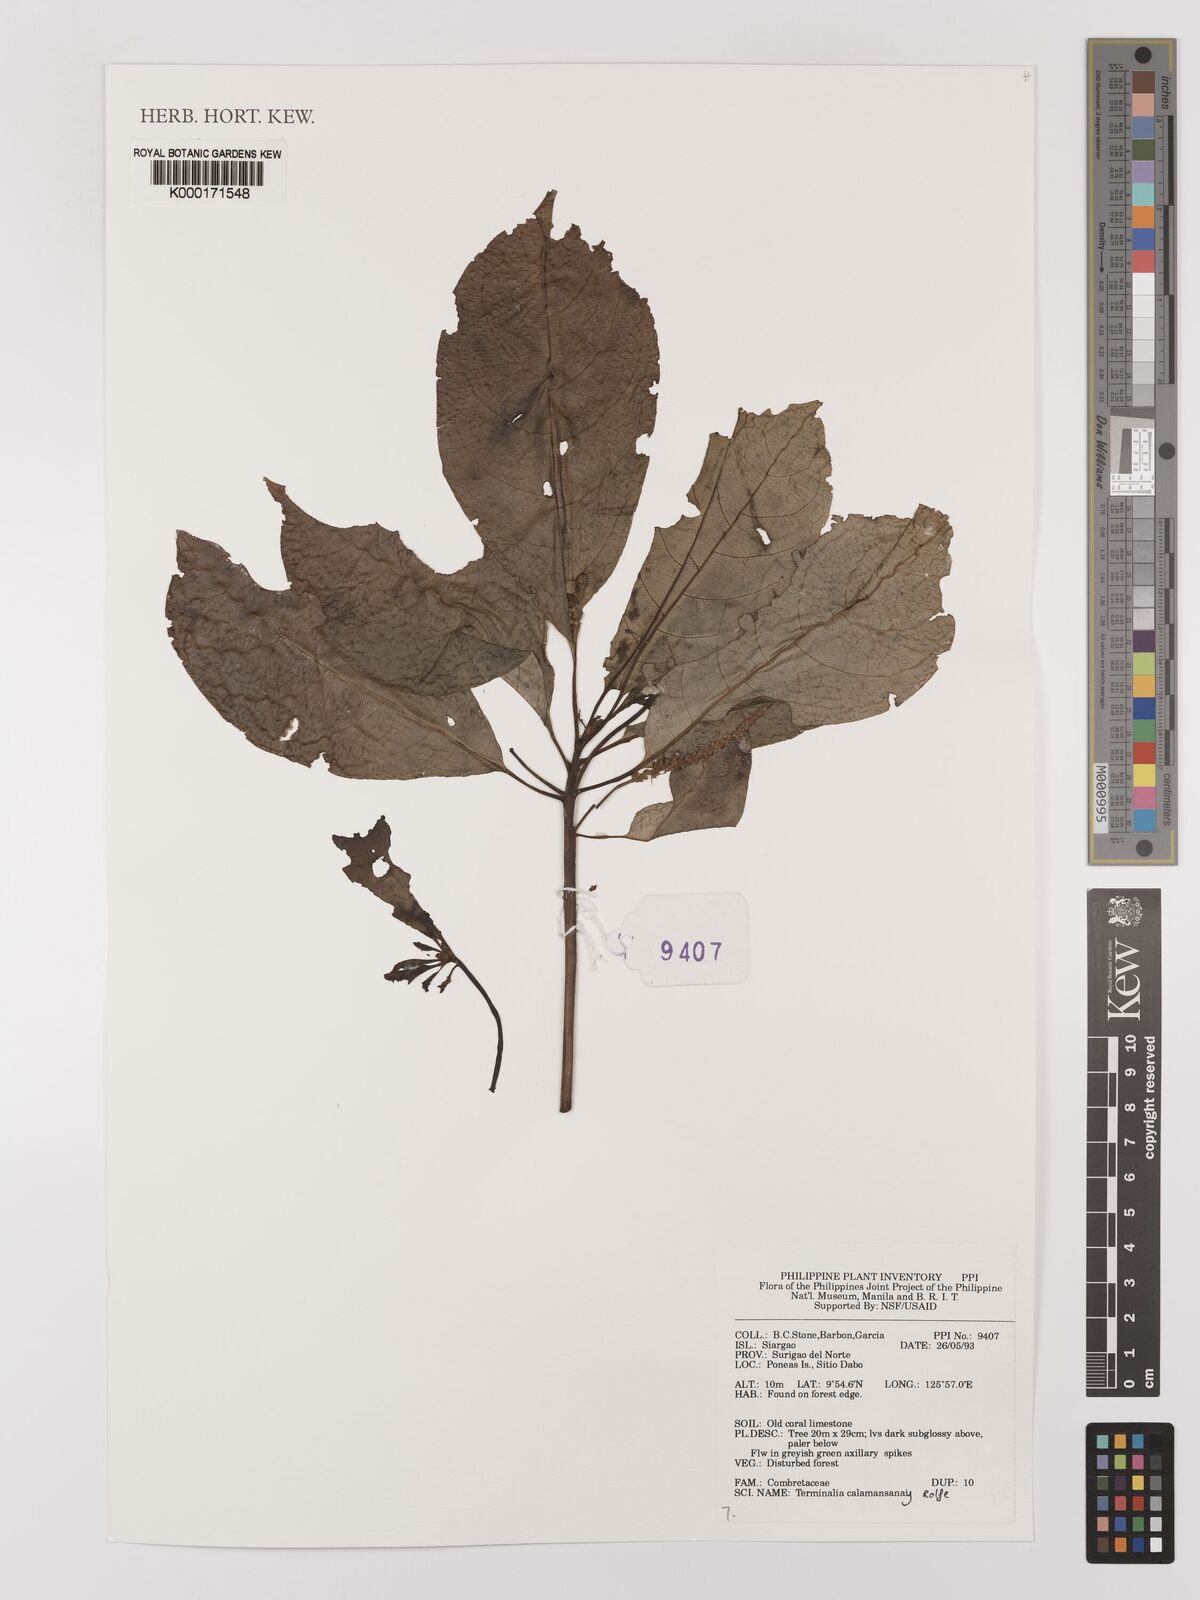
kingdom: Plantae
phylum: Tracheophyta
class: Magnoliopsida
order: Myrtales
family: Combretaceae
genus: Terminalia
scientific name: Terminalia calamansanai
